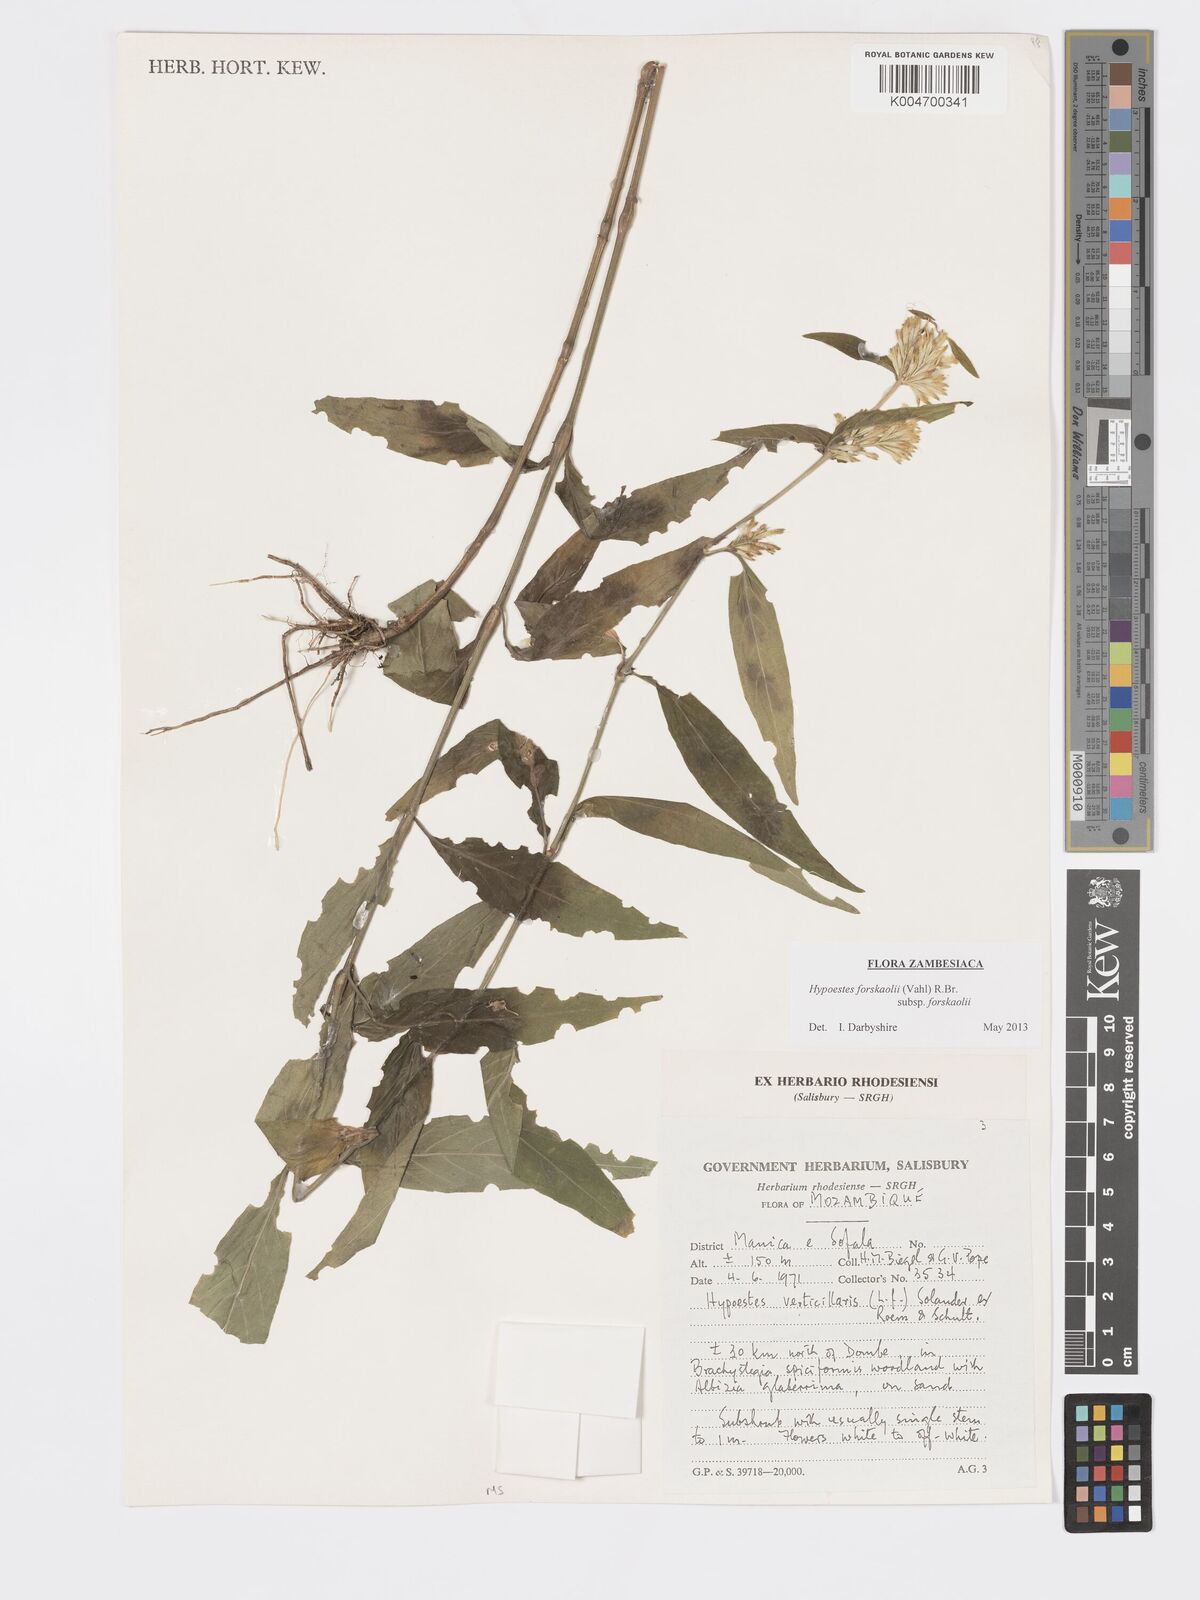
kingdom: Plantae
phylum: Tracheophyta
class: Magnoliopsida
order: Lamiales
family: Acanthaceae
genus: Hypoestes
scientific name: Hypoestes forskaolii
